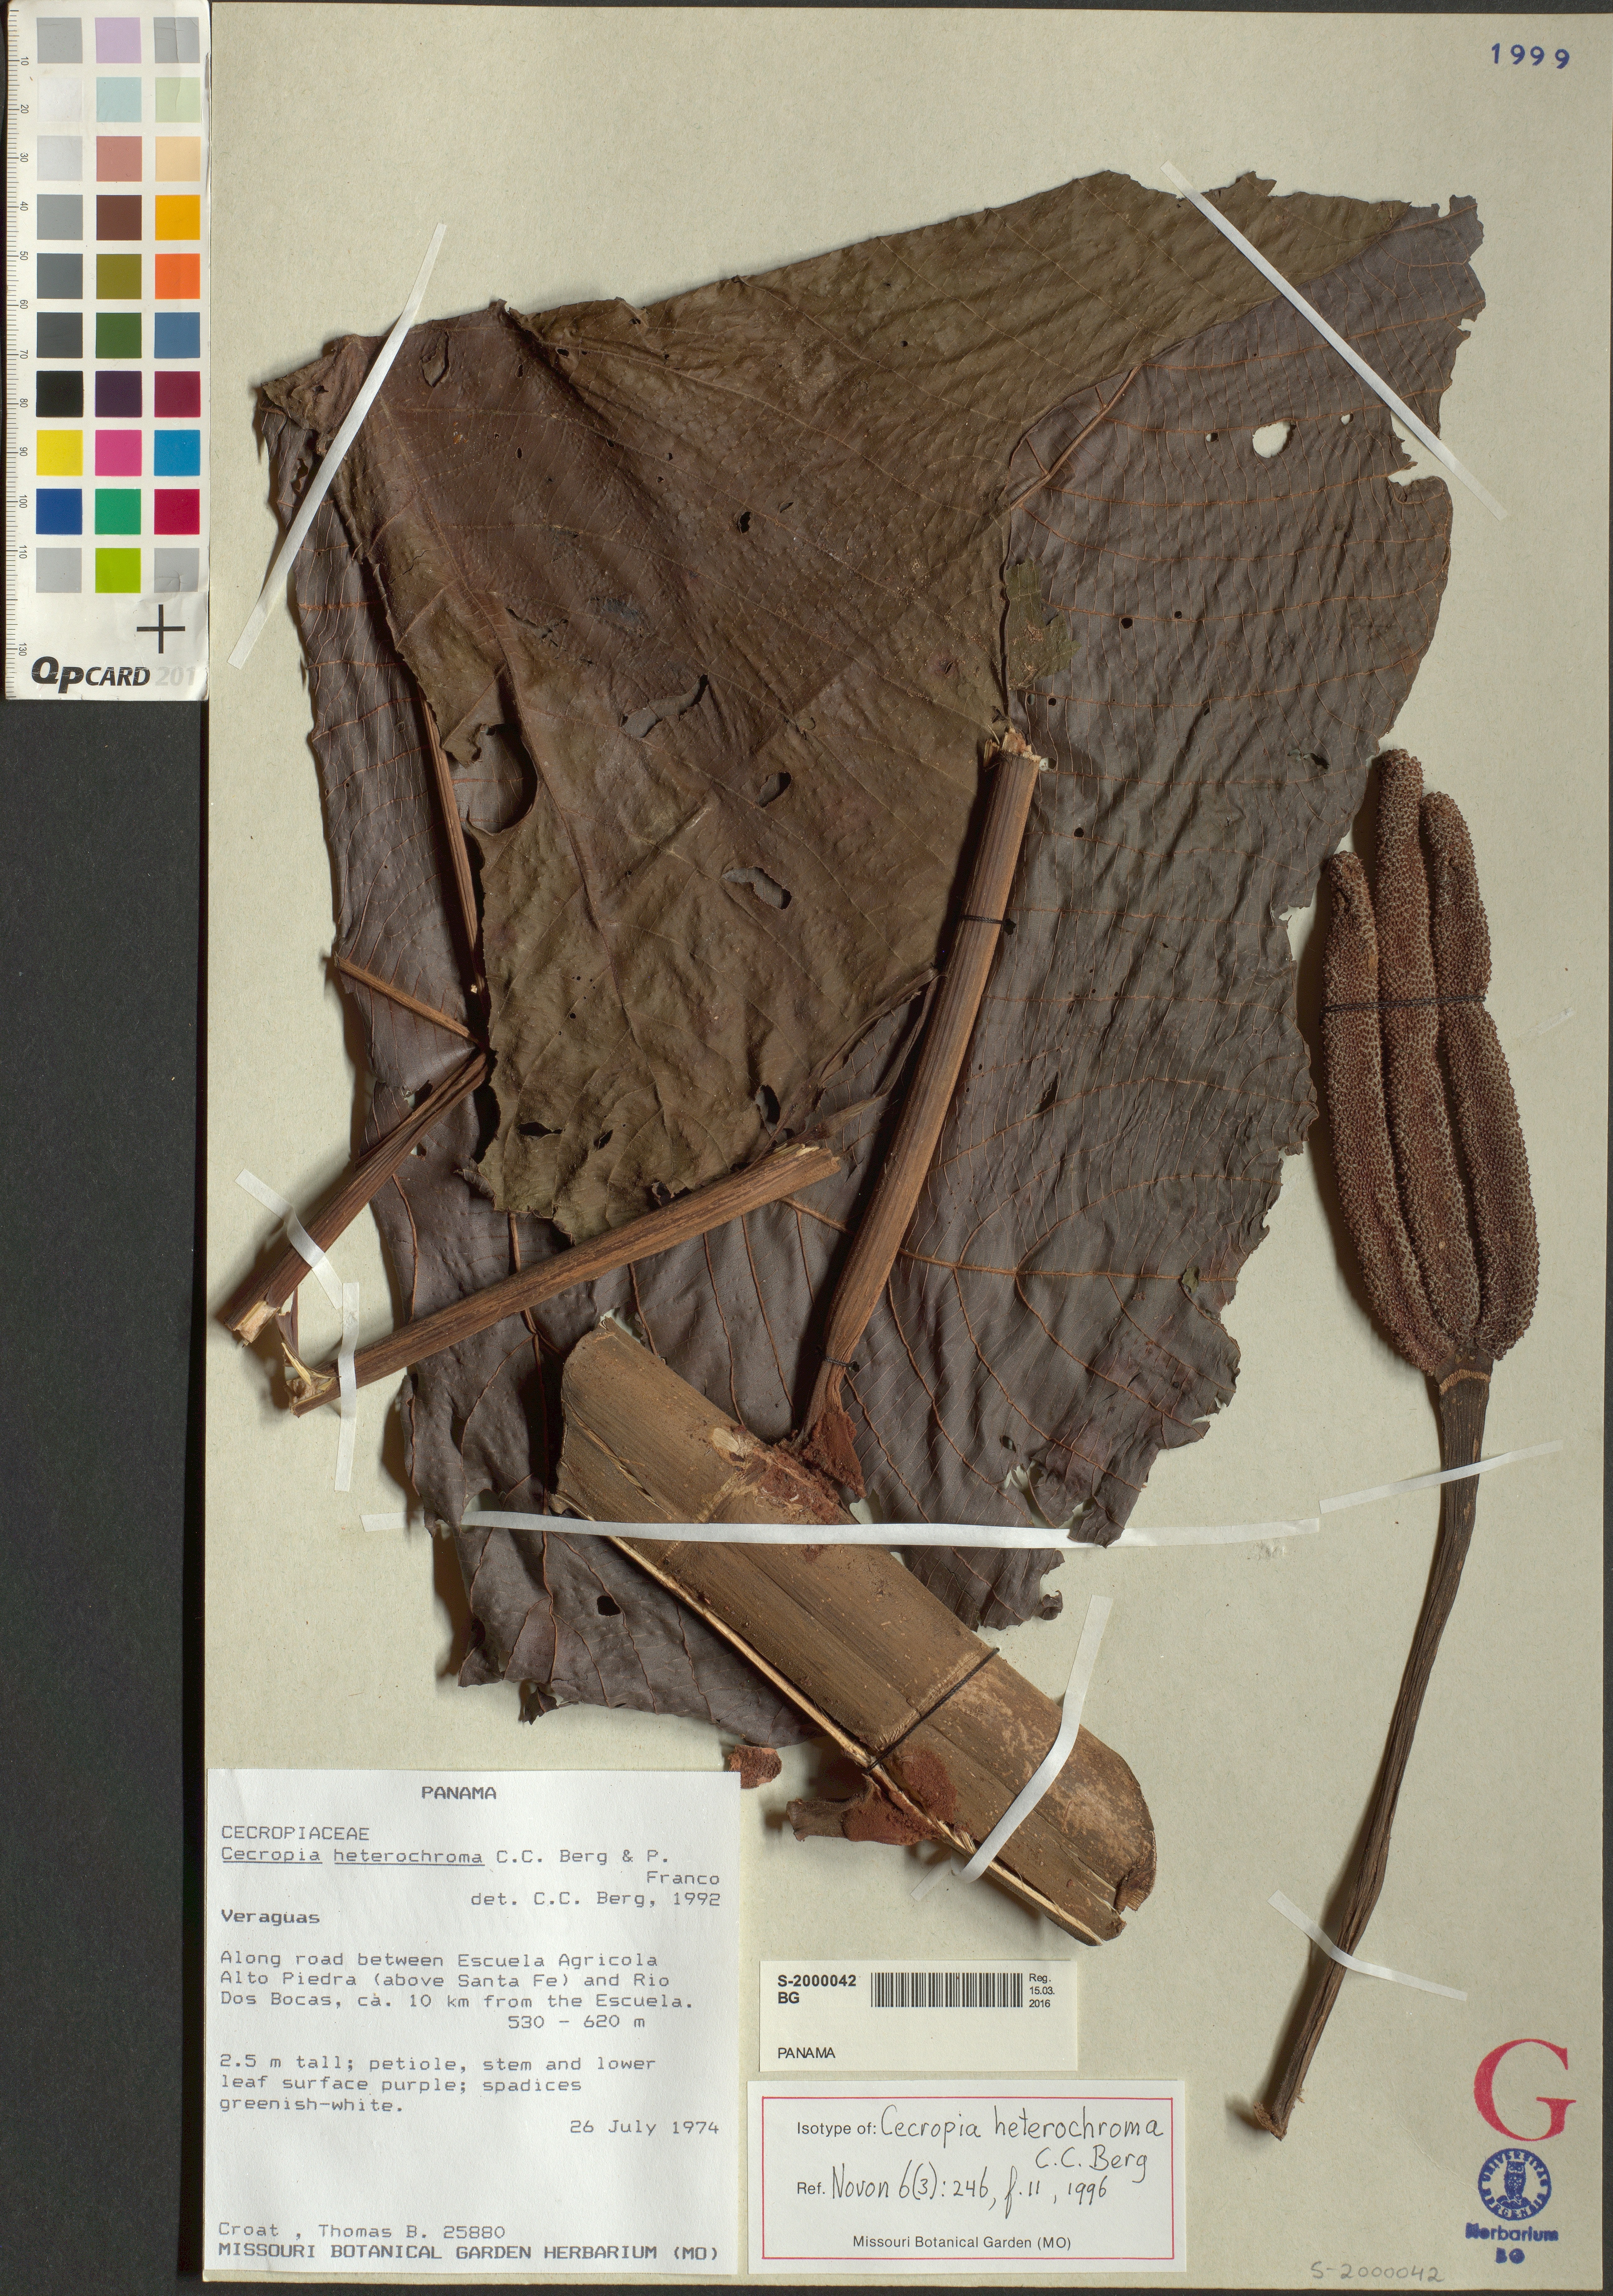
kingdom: Plantae
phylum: Tracheophyta
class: Magnoliopsida
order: Rosales
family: Urticaceae
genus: Cecropia
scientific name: Cecropia heterochroma
